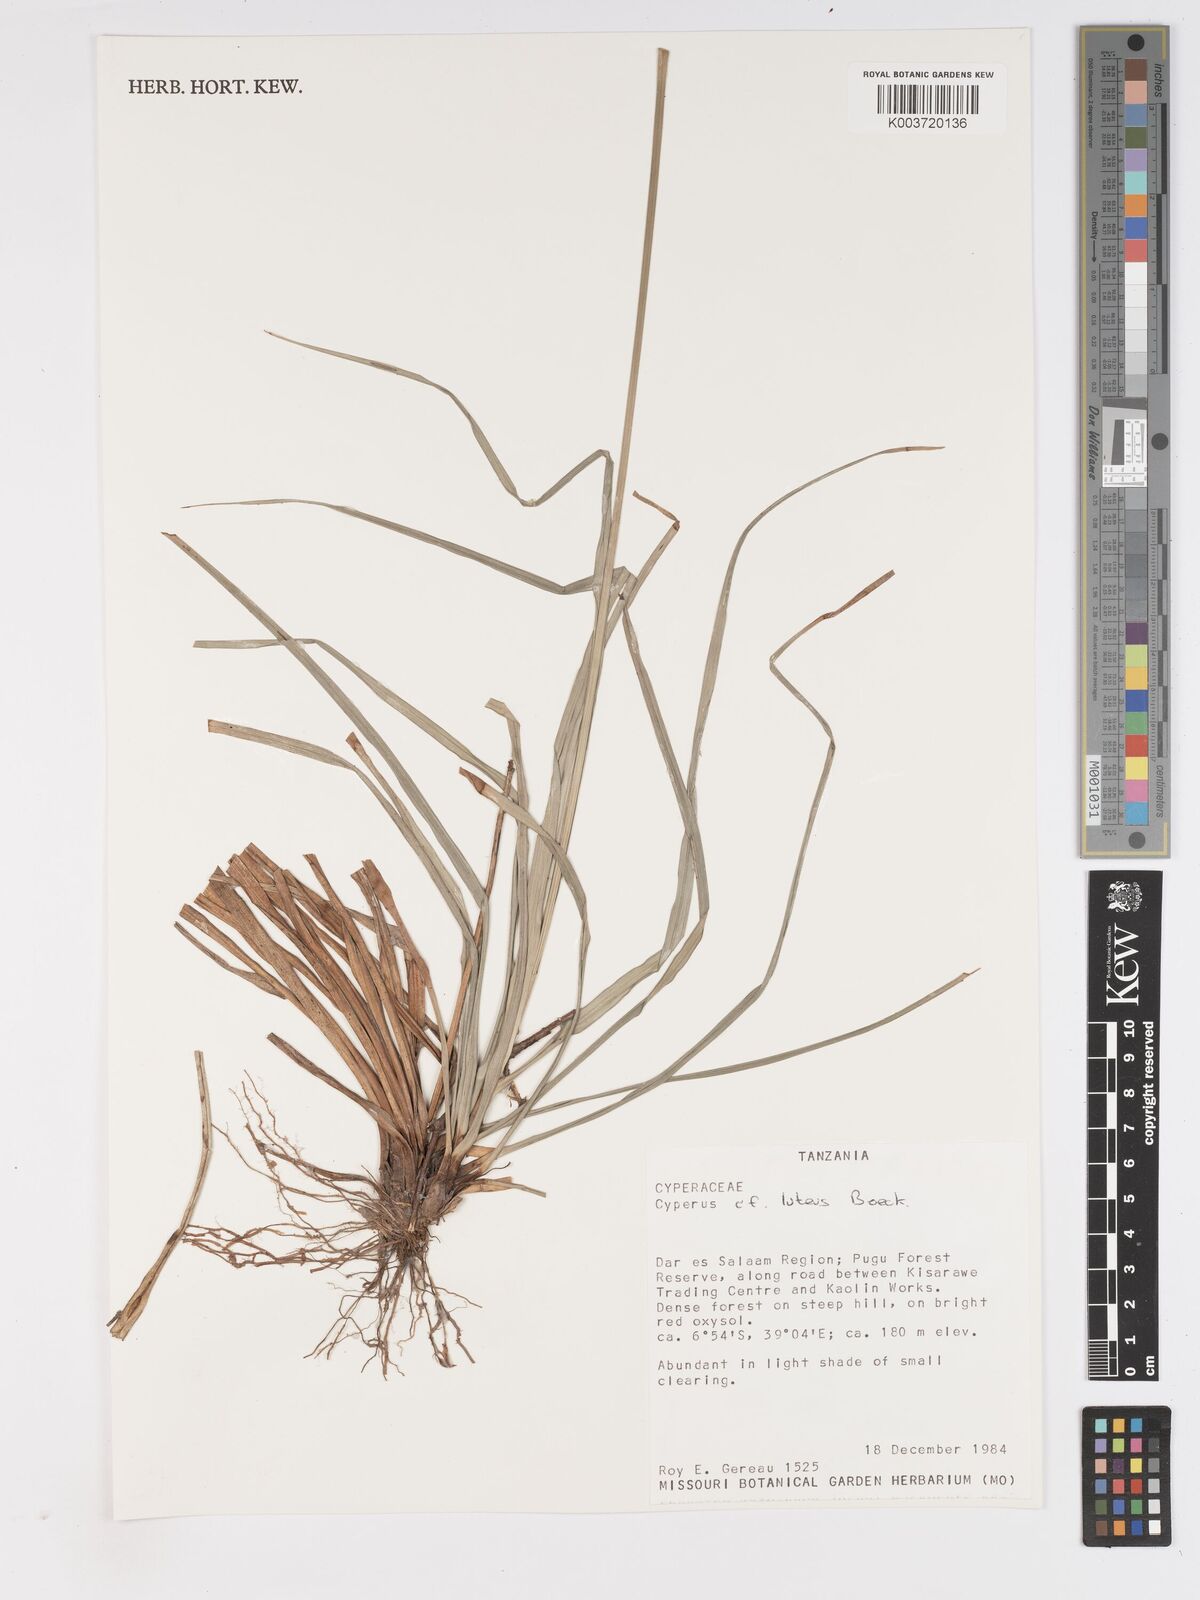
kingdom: Plantae
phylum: Tracheophyta
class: Liliopsida
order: Poales
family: Cyperaceae
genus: Cyperus
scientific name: Cyperus luteus
